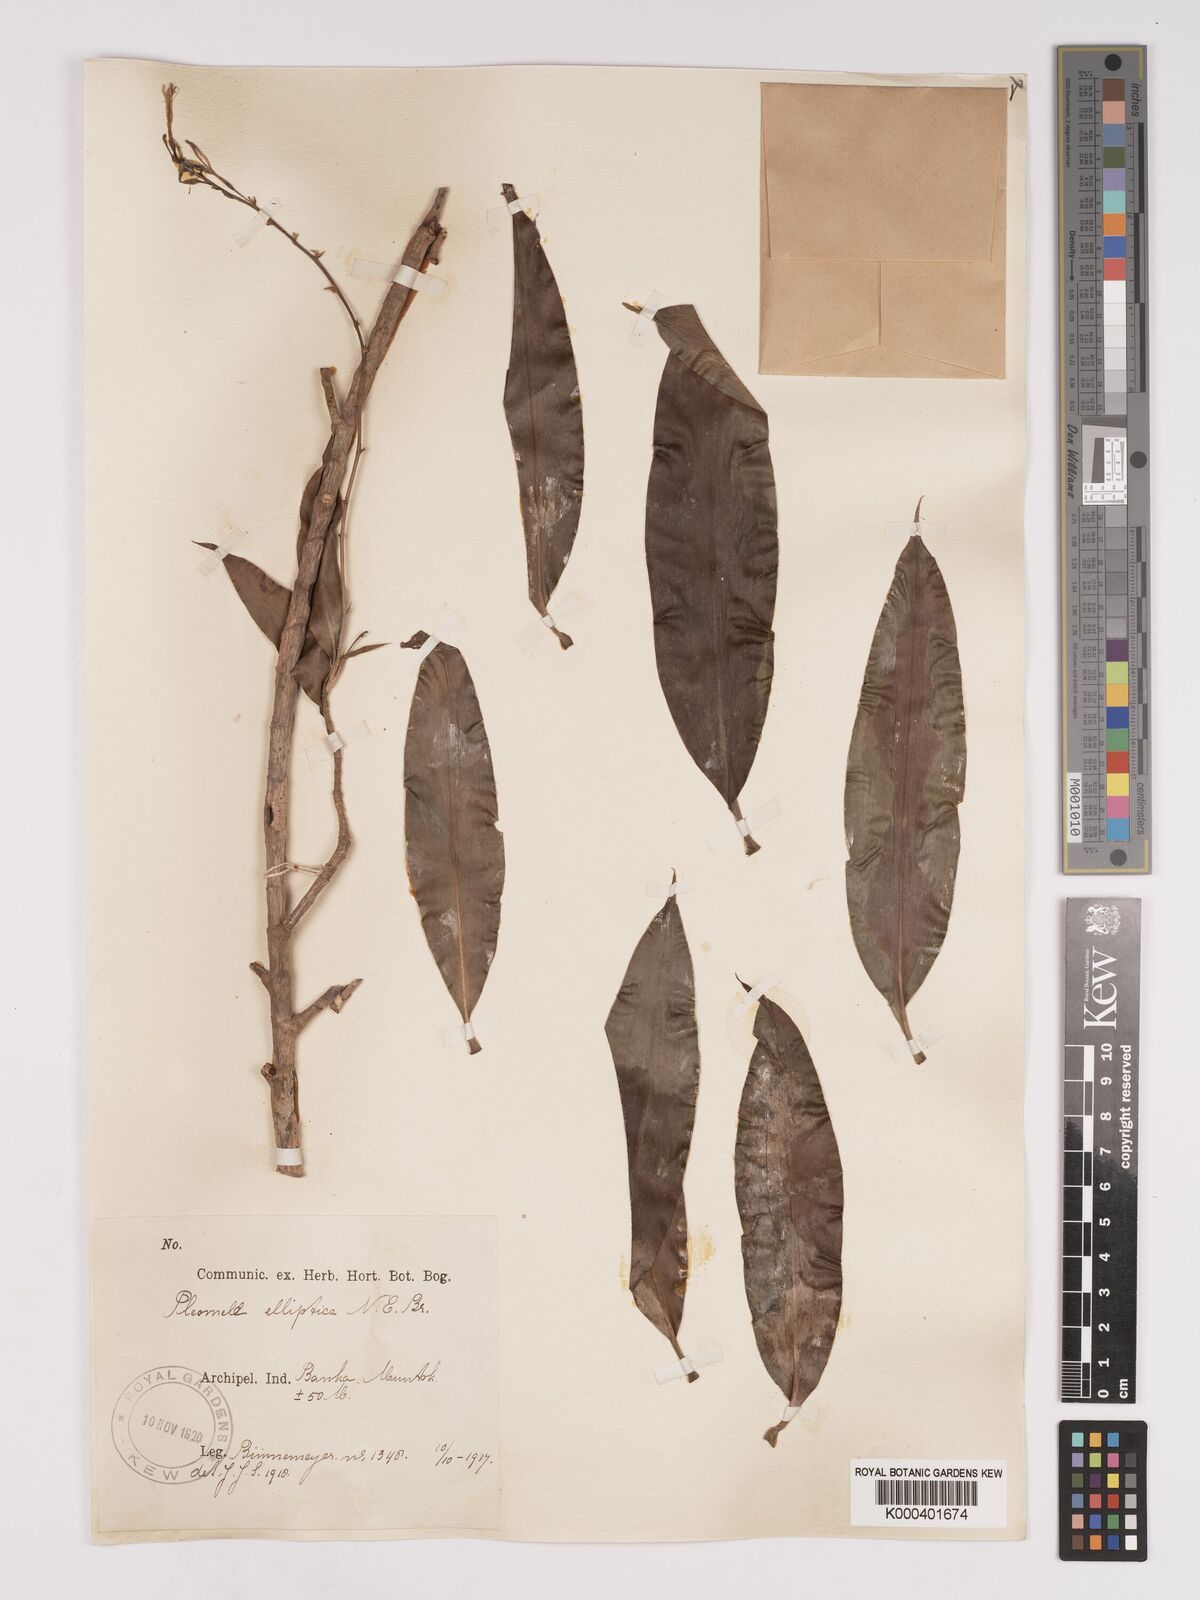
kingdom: Plantae
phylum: Tracheophyta
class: Liliopsida
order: Asparagales
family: Asparagaceae
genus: Dracaena
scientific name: Dracaena elliptica
